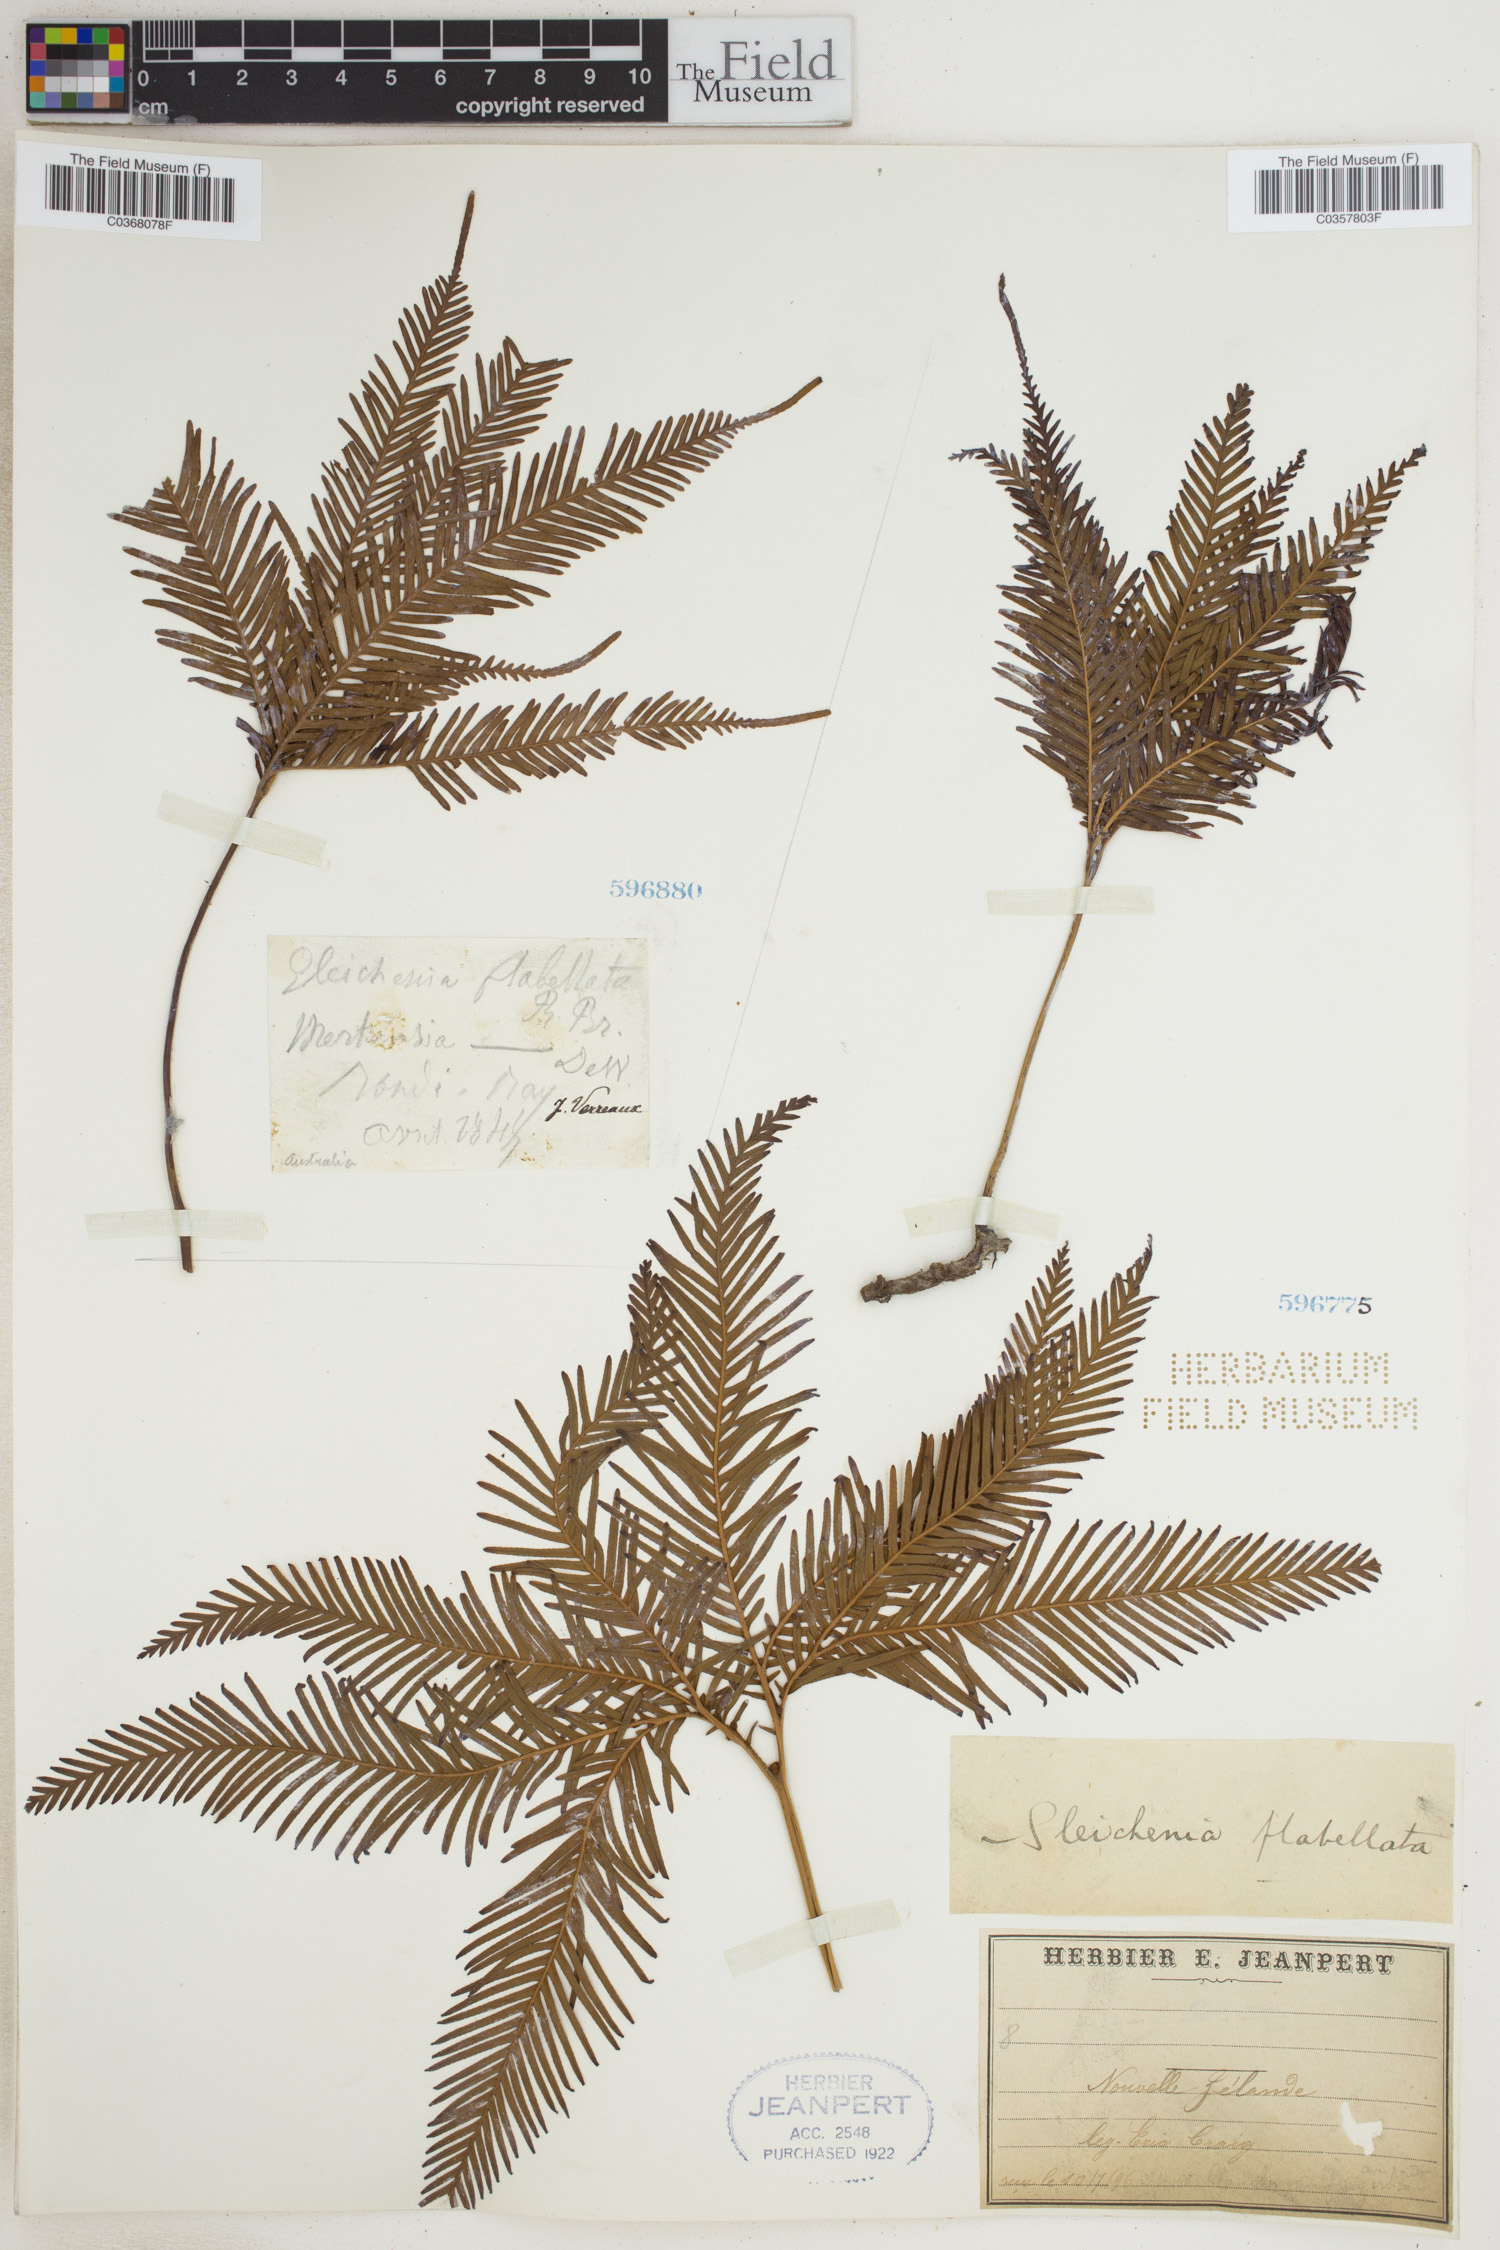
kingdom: Plantae
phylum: Tracheophyta
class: Polypodiopsida
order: Gleicheniales
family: Gleicheniaceae
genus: Sticherus
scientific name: Sticherus flabellatus
